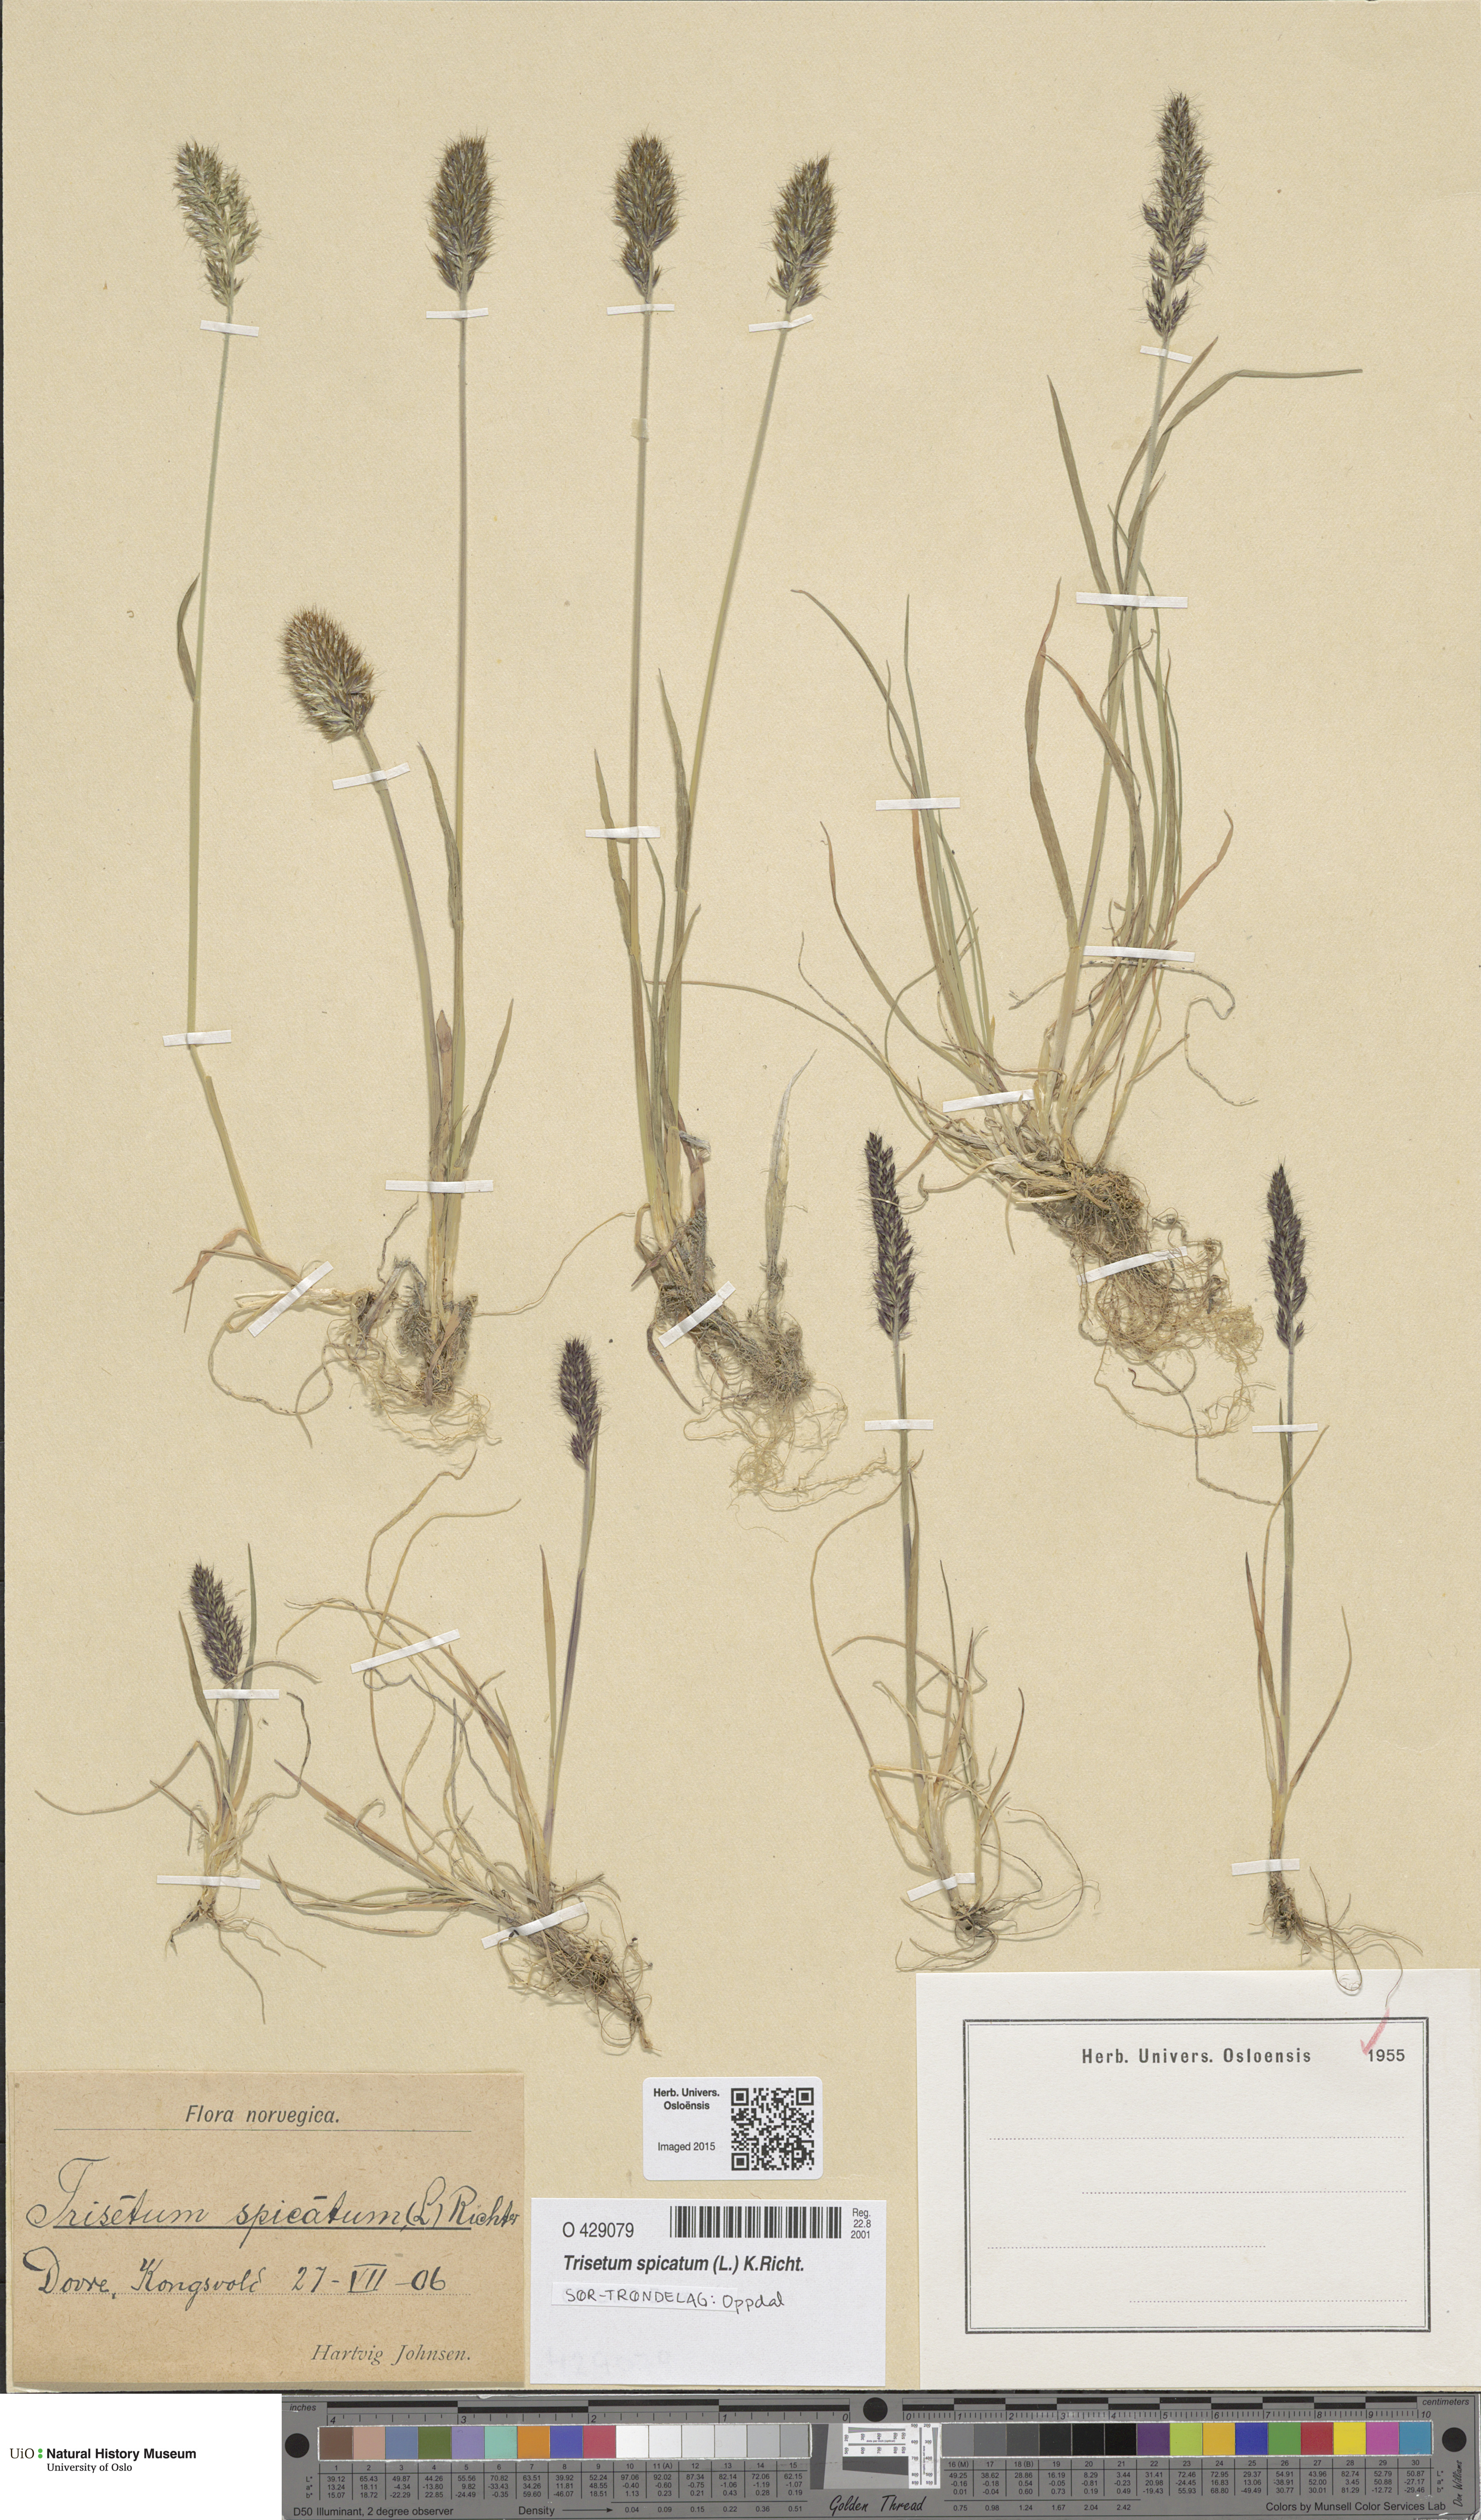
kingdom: Plantae
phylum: Tracheophyta
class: Liliopsida
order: Poales
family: Poaceae
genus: Koeleria
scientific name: Koeleria spicata
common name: Mountain trisetum
